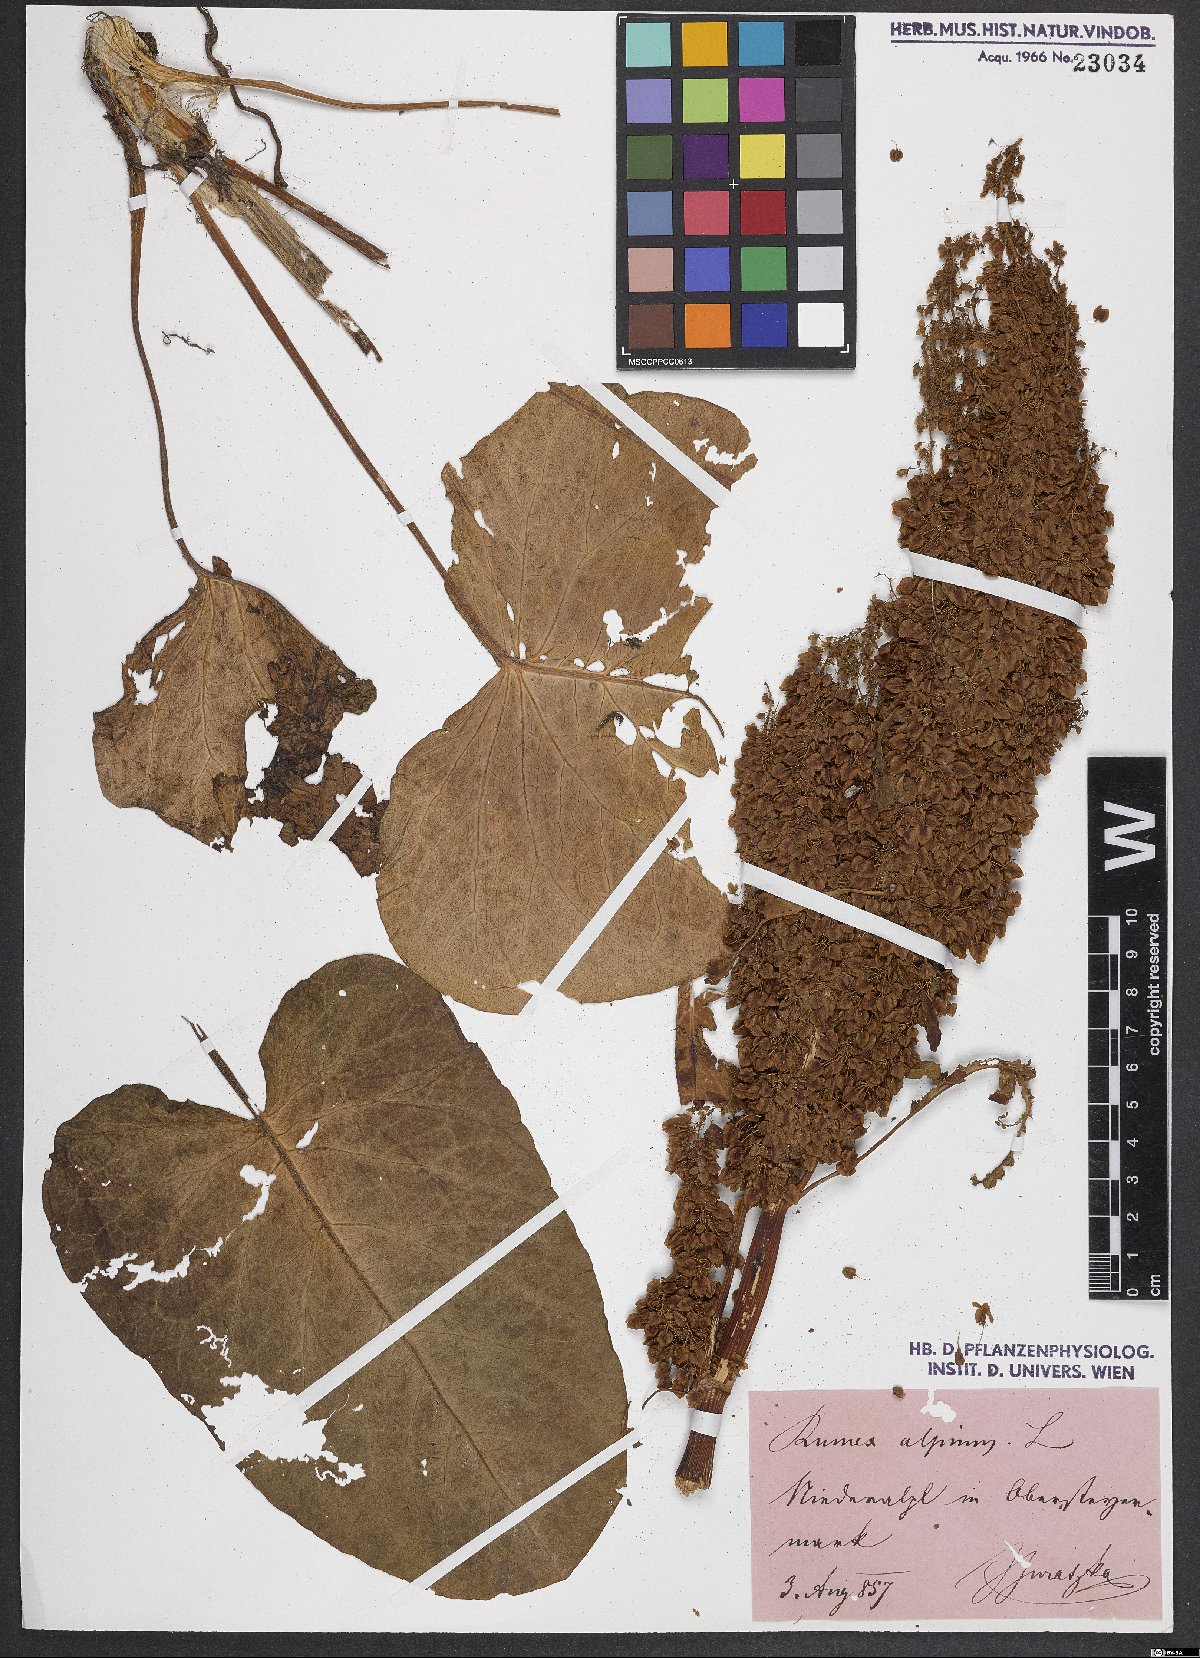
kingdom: Plantae
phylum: Tracheophyta
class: Magnoliopsida
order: Caryophyllales
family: Polygonaceae
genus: Rumex
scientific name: Rumex alpinus
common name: Alpine dock
